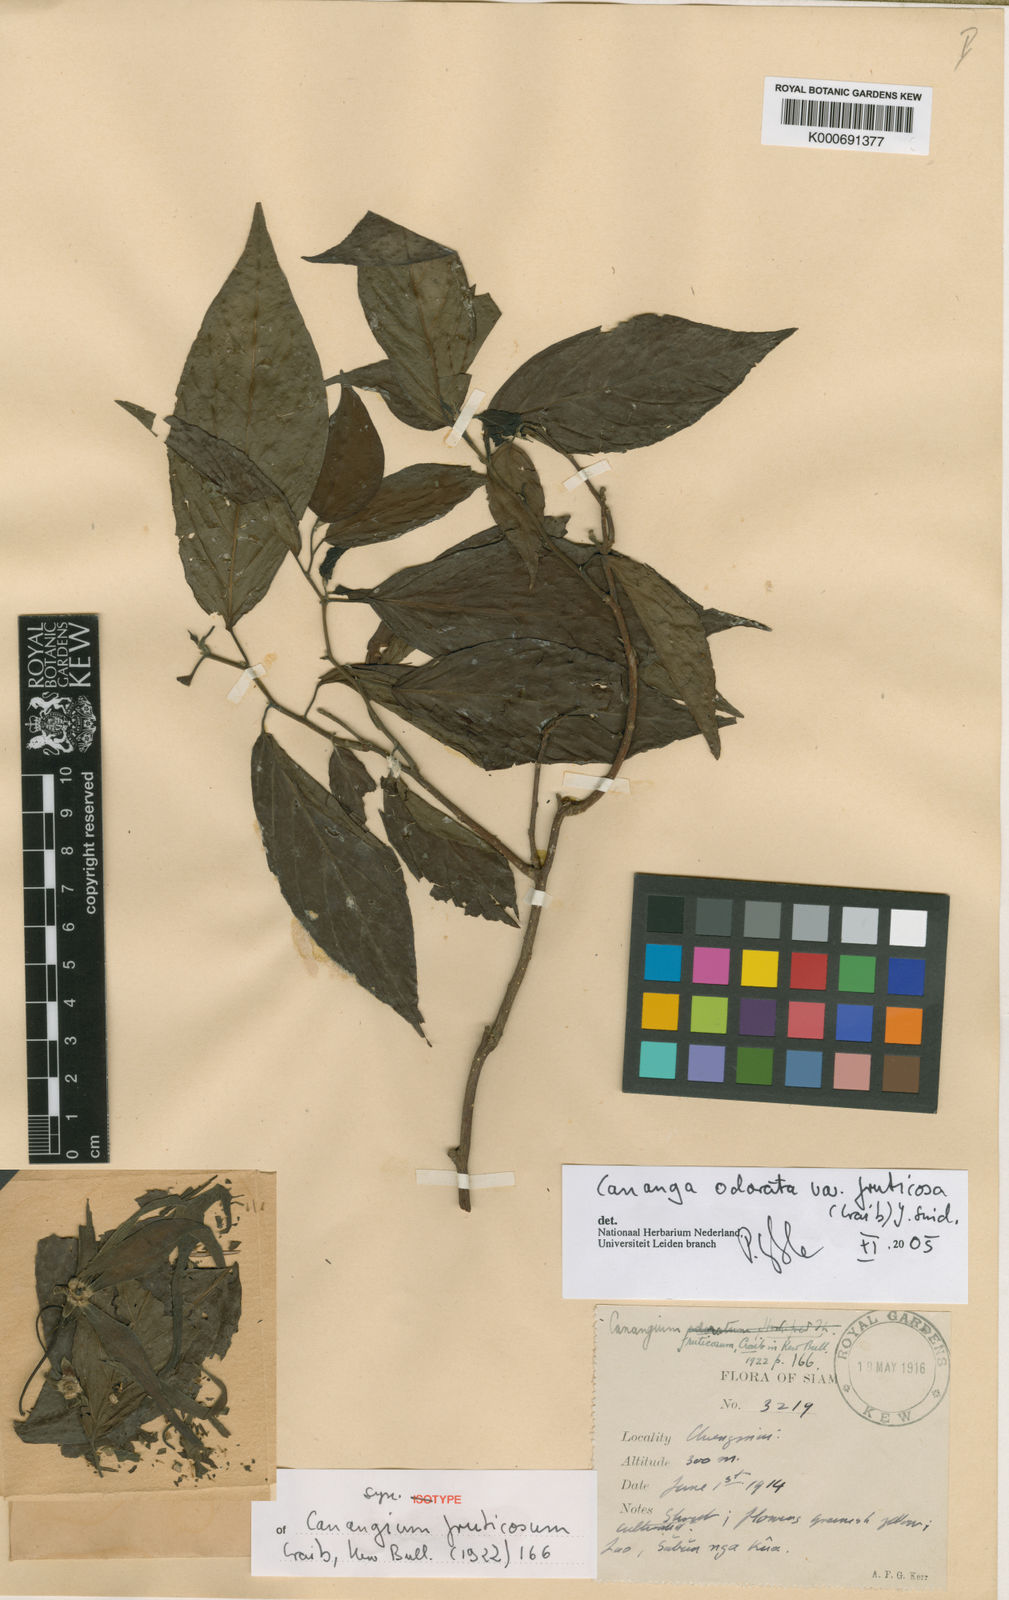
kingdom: Plantae
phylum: Tracheophyta
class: Magnoliopsida
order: Magnoliales
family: Annonaceae
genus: Cananga
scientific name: Cananga odorata
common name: Cananga tree
